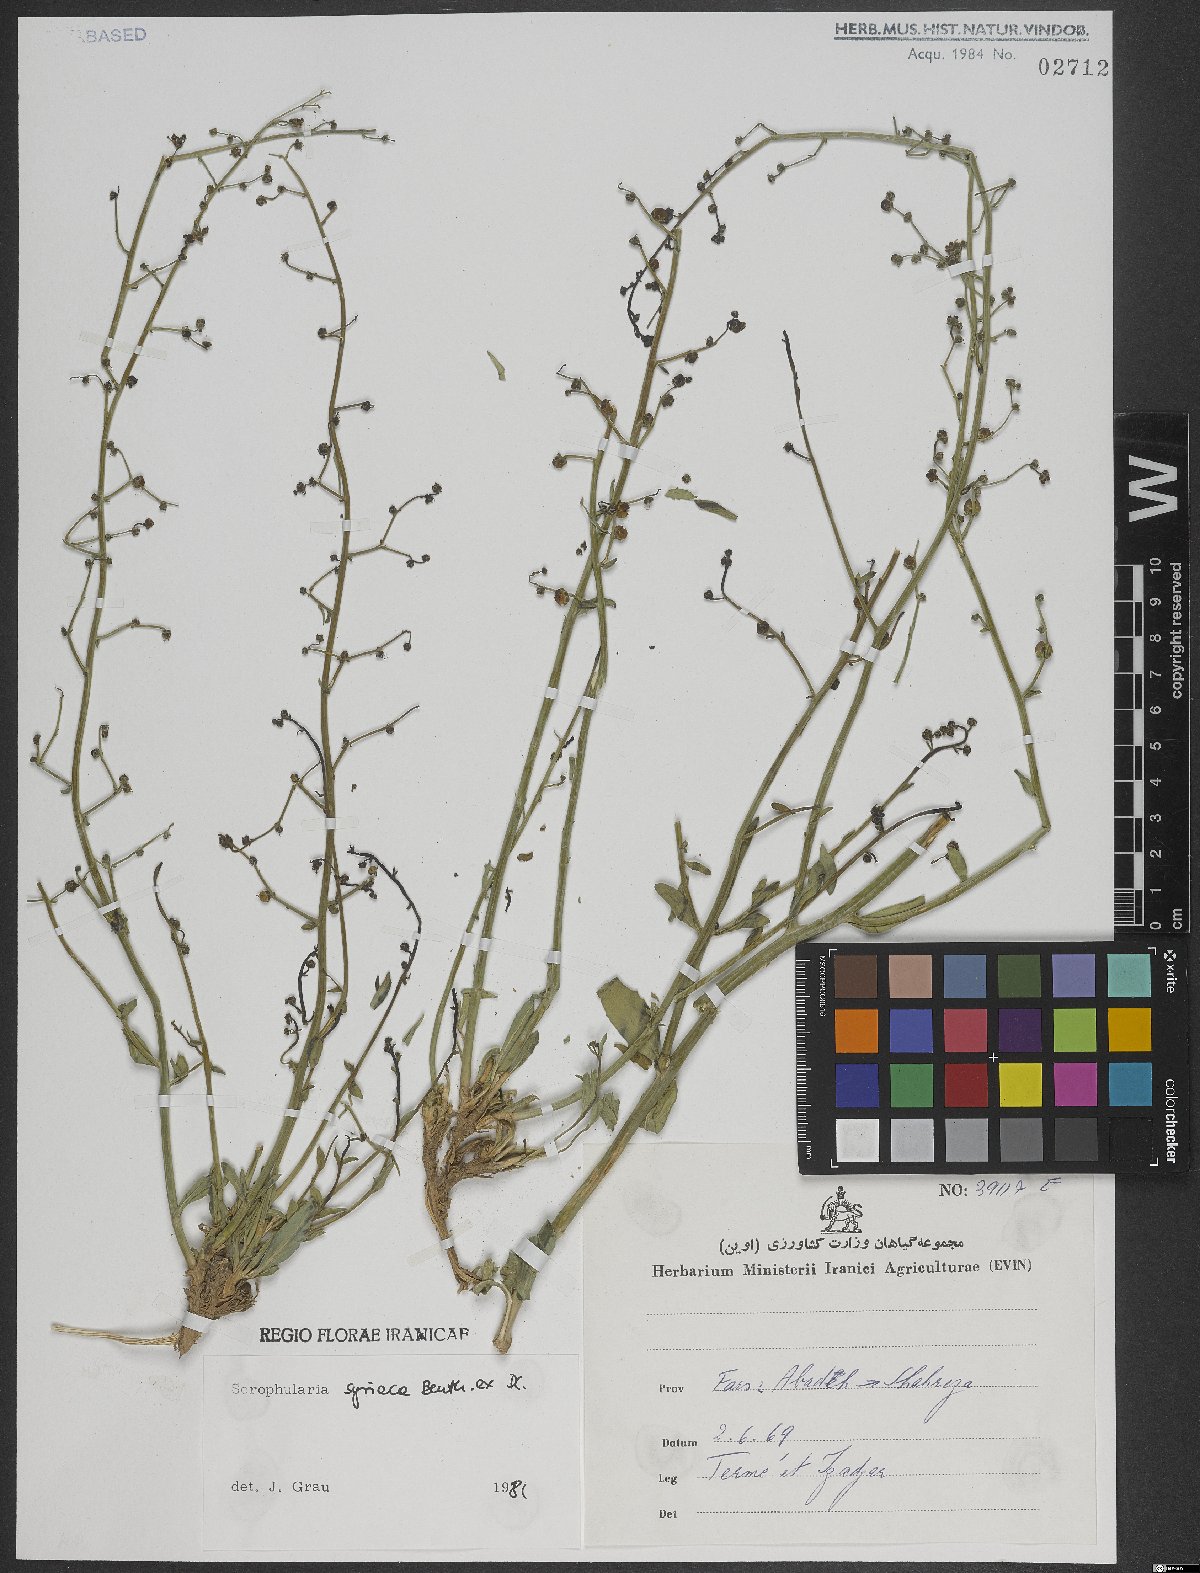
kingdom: Plantae
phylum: Tracheophyta
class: Magnoliopsida
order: Lamiales
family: Scrophulariaceae
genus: Scrophularia
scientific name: Scrophularia hypericifolia
